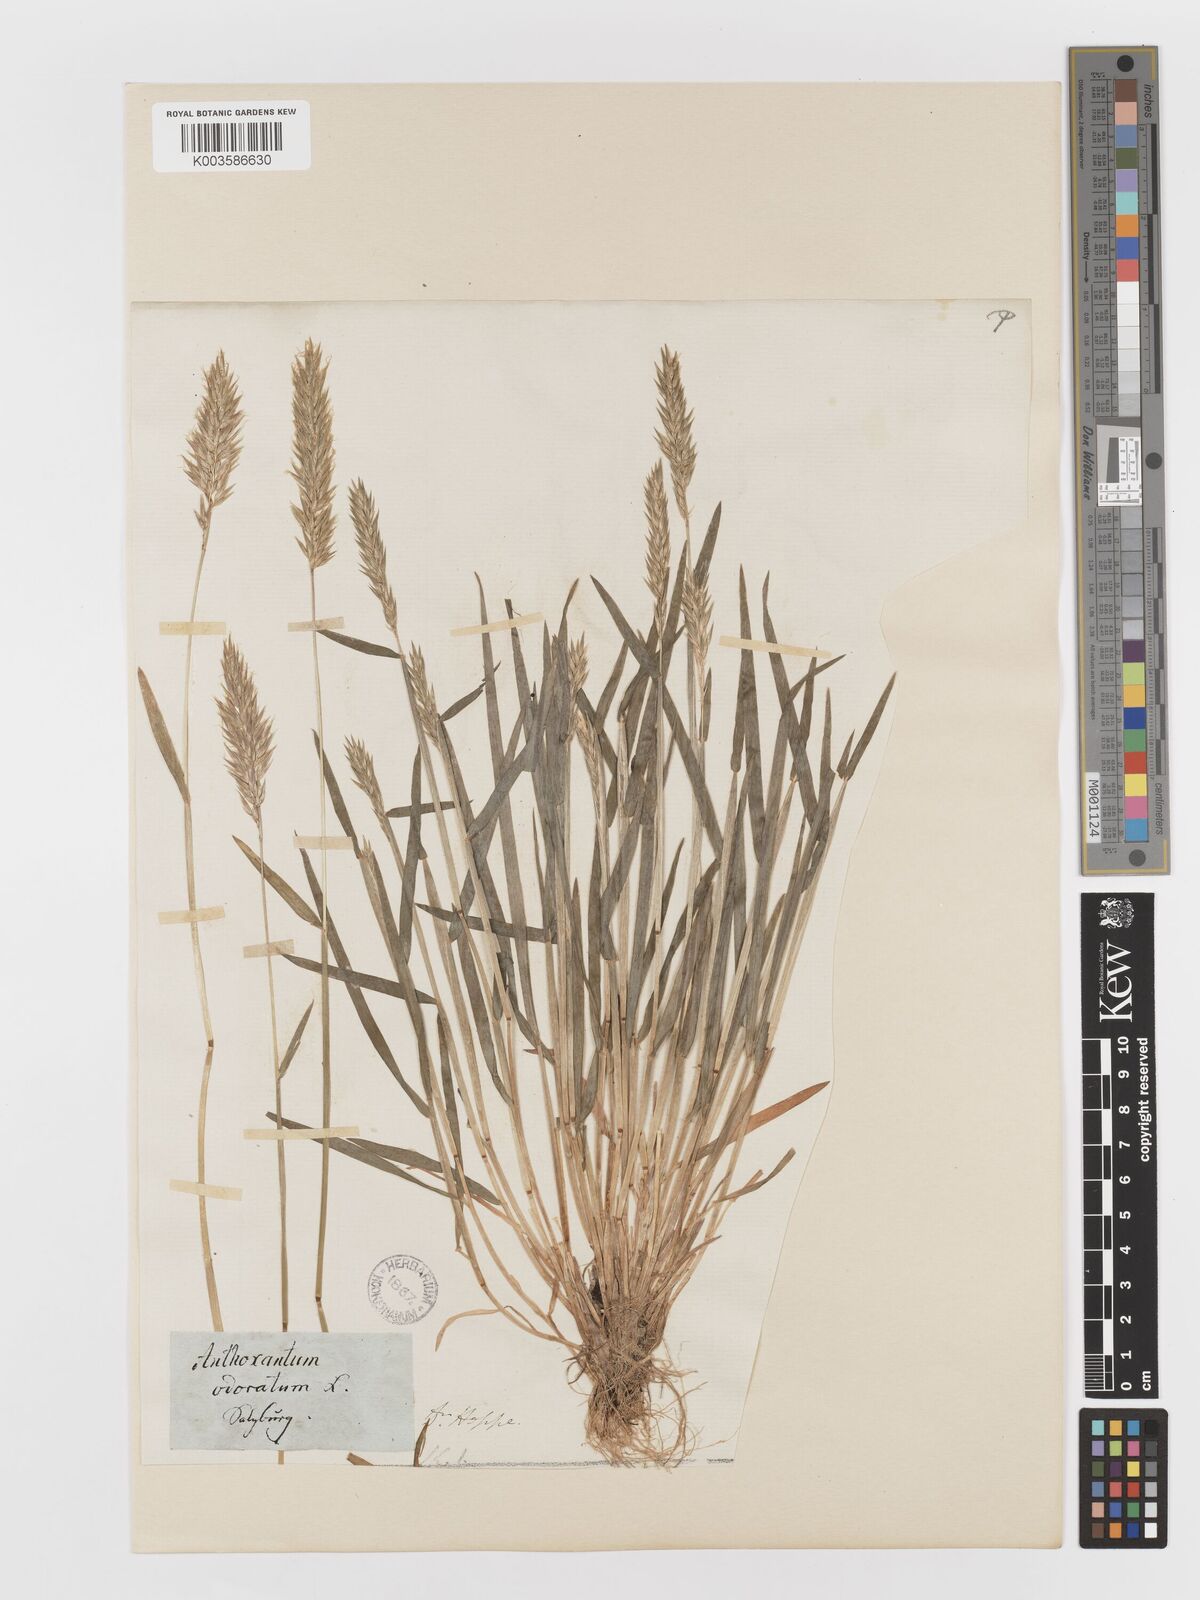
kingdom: Plantae
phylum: Tracheophyta
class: Liliopsida
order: Poales
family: Poaceae
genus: Anthoxanthum
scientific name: Anthoxanthum odoratum
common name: Sweet vernalgrass
